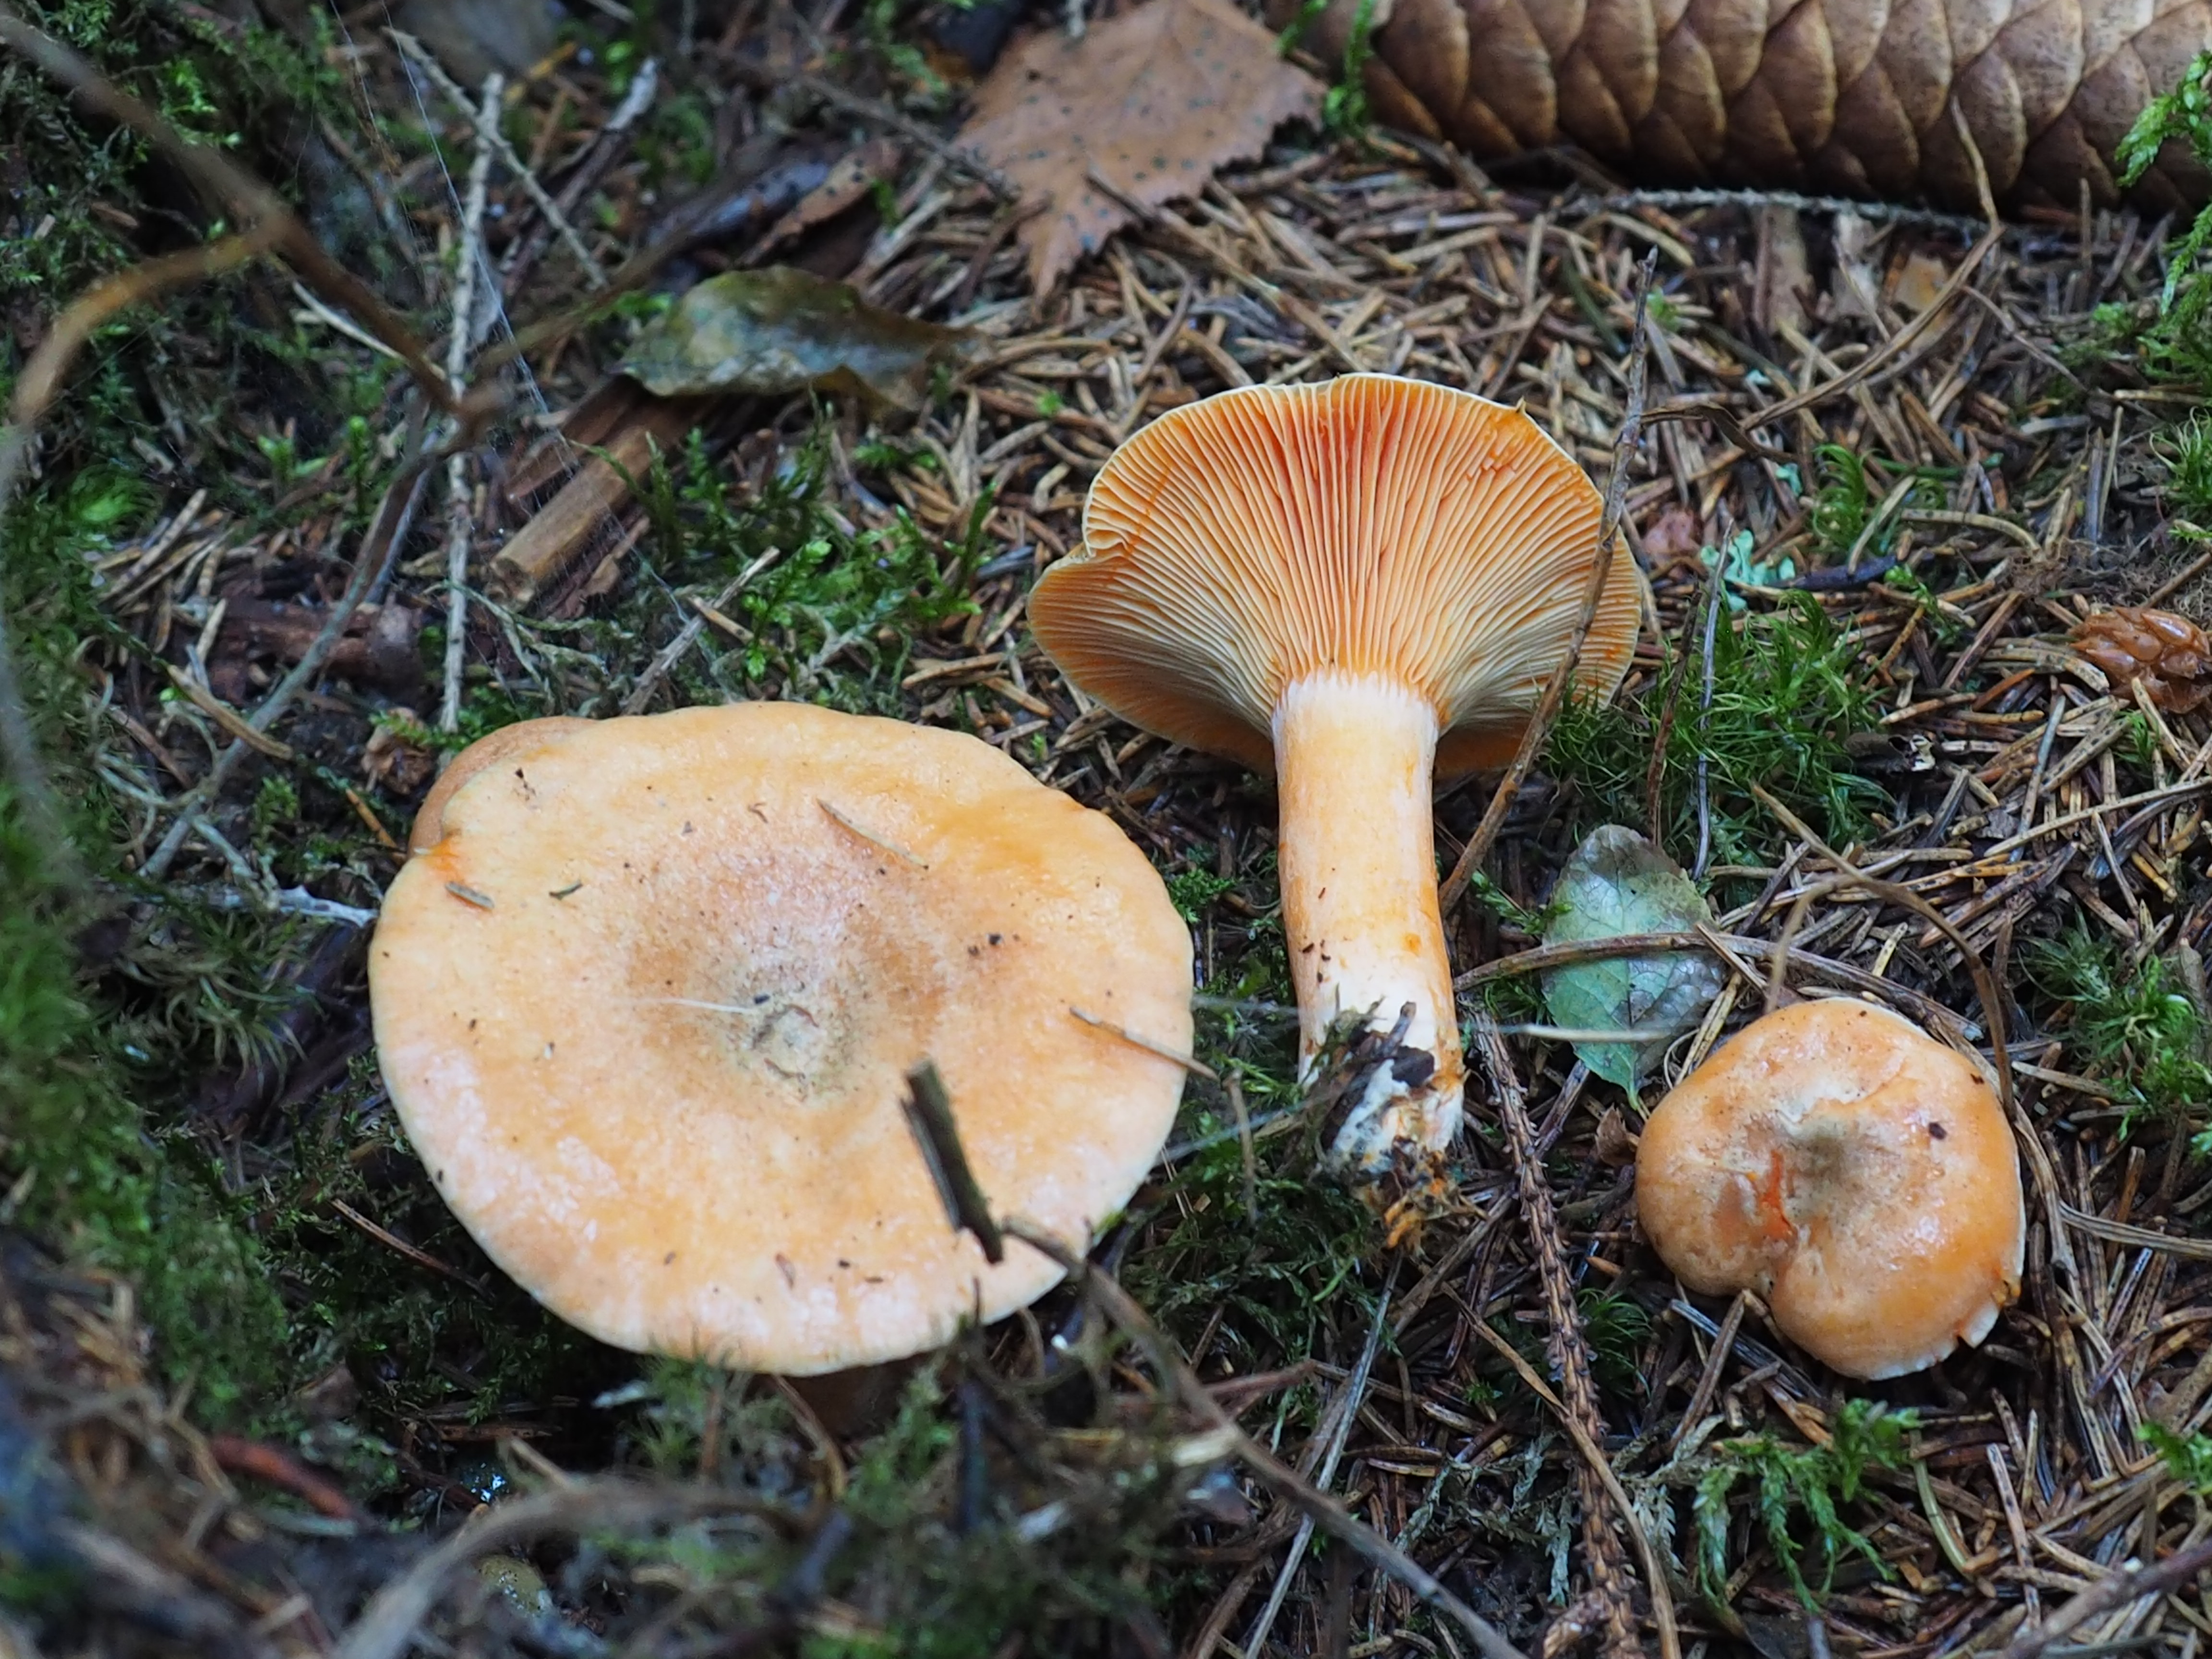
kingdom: Fungi
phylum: Basidiomycota
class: Agaricomycetes
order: Russulales
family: Russulaceae
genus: Lactarius
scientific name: Lactarius deterrimus
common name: False saffron milkcap
